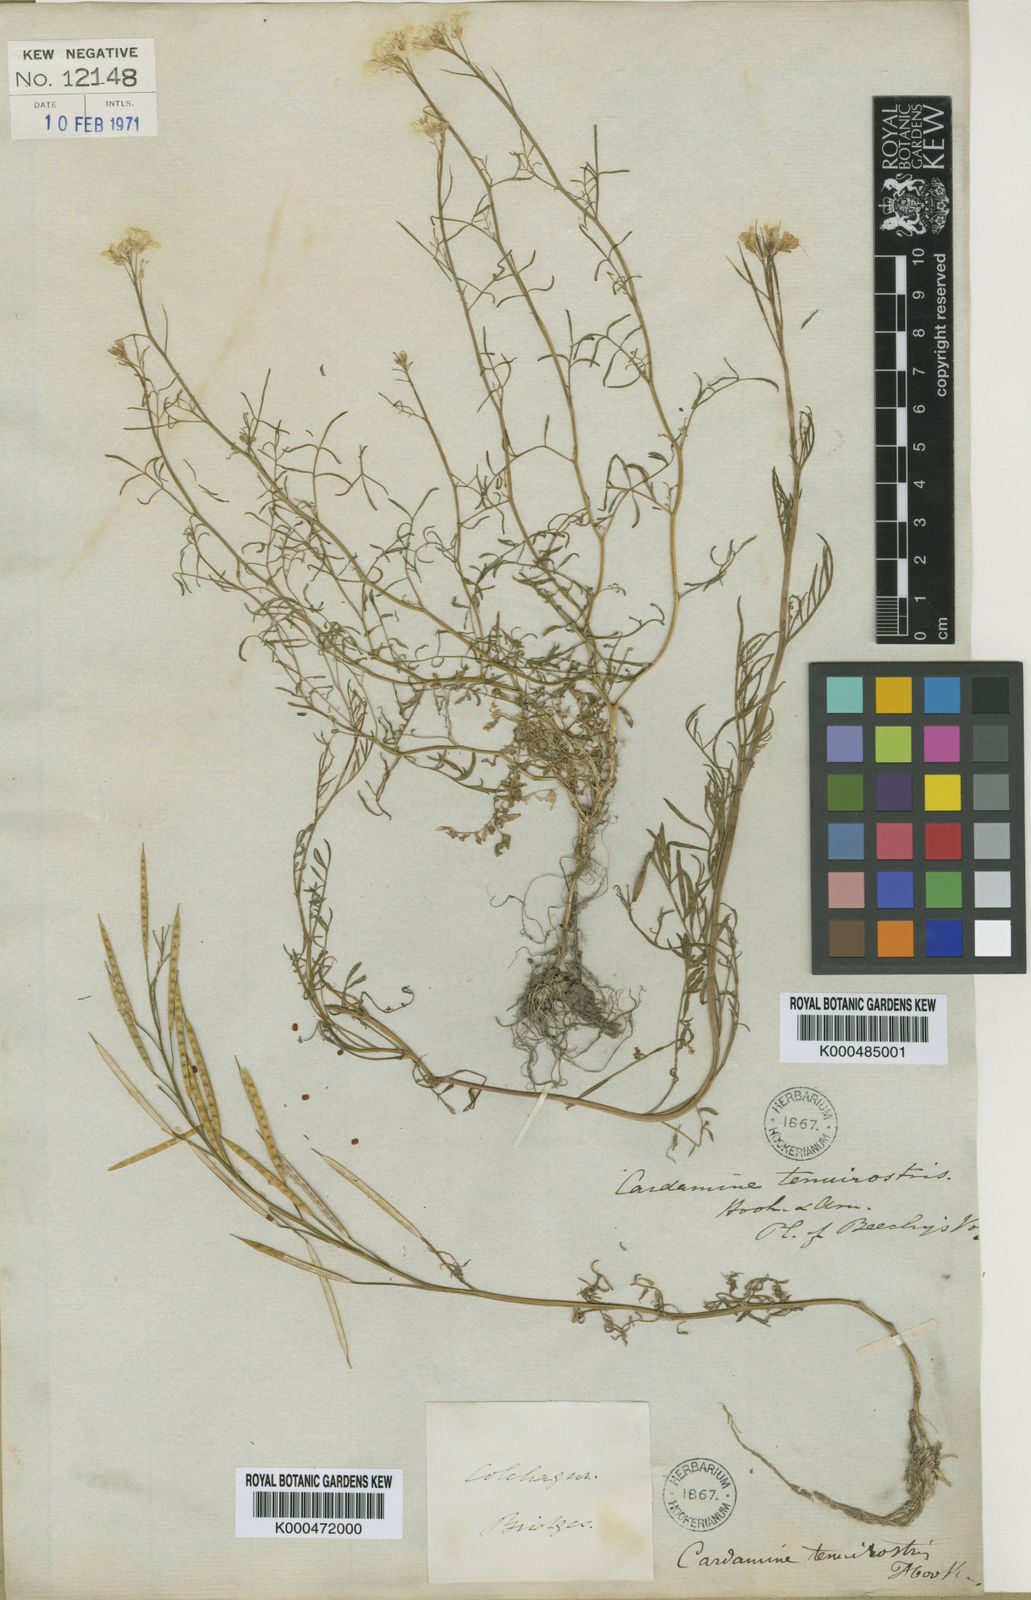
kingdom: Plantae
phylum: Tracheophyta
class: Magnoliopsida
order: Brassicales
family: Brassicaceae
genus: Cardamine
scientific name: Cardamine tenuirostris
